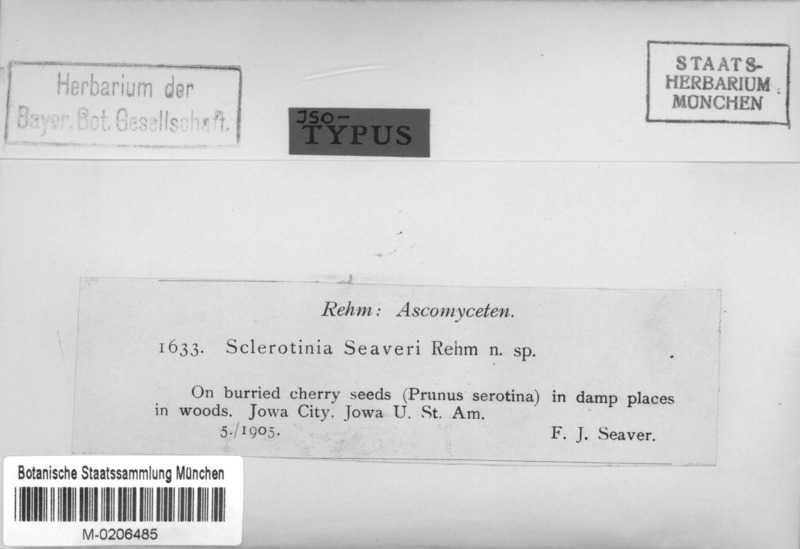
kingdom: Fungi
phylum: Ascomycota
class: Leotiomycetes
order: Helotiales
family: Sclerotiniaceae
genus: Monilinia
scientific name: Monilinia seaveri
